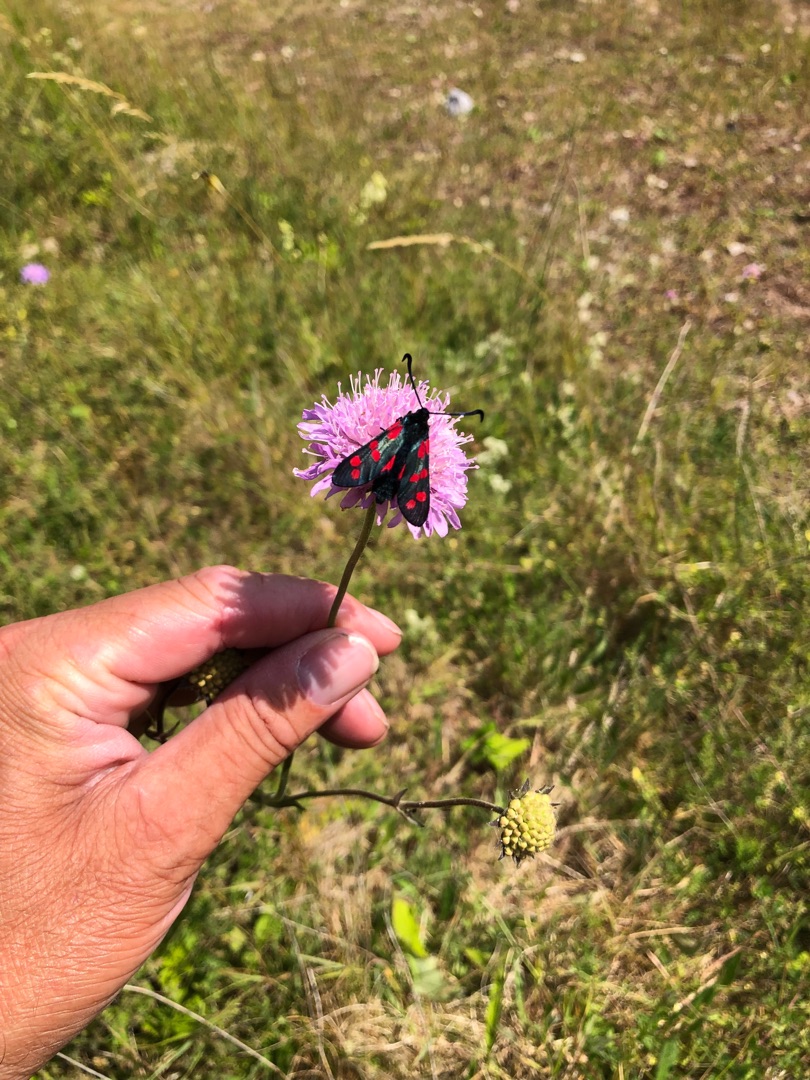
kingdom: Animalia
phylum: Arthropoda
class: Insecta
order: Lepidoptera
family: Zygaenidae
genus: Zygaena
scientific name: Zygaena filipendulae
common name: Seksplettet køllesværmer
